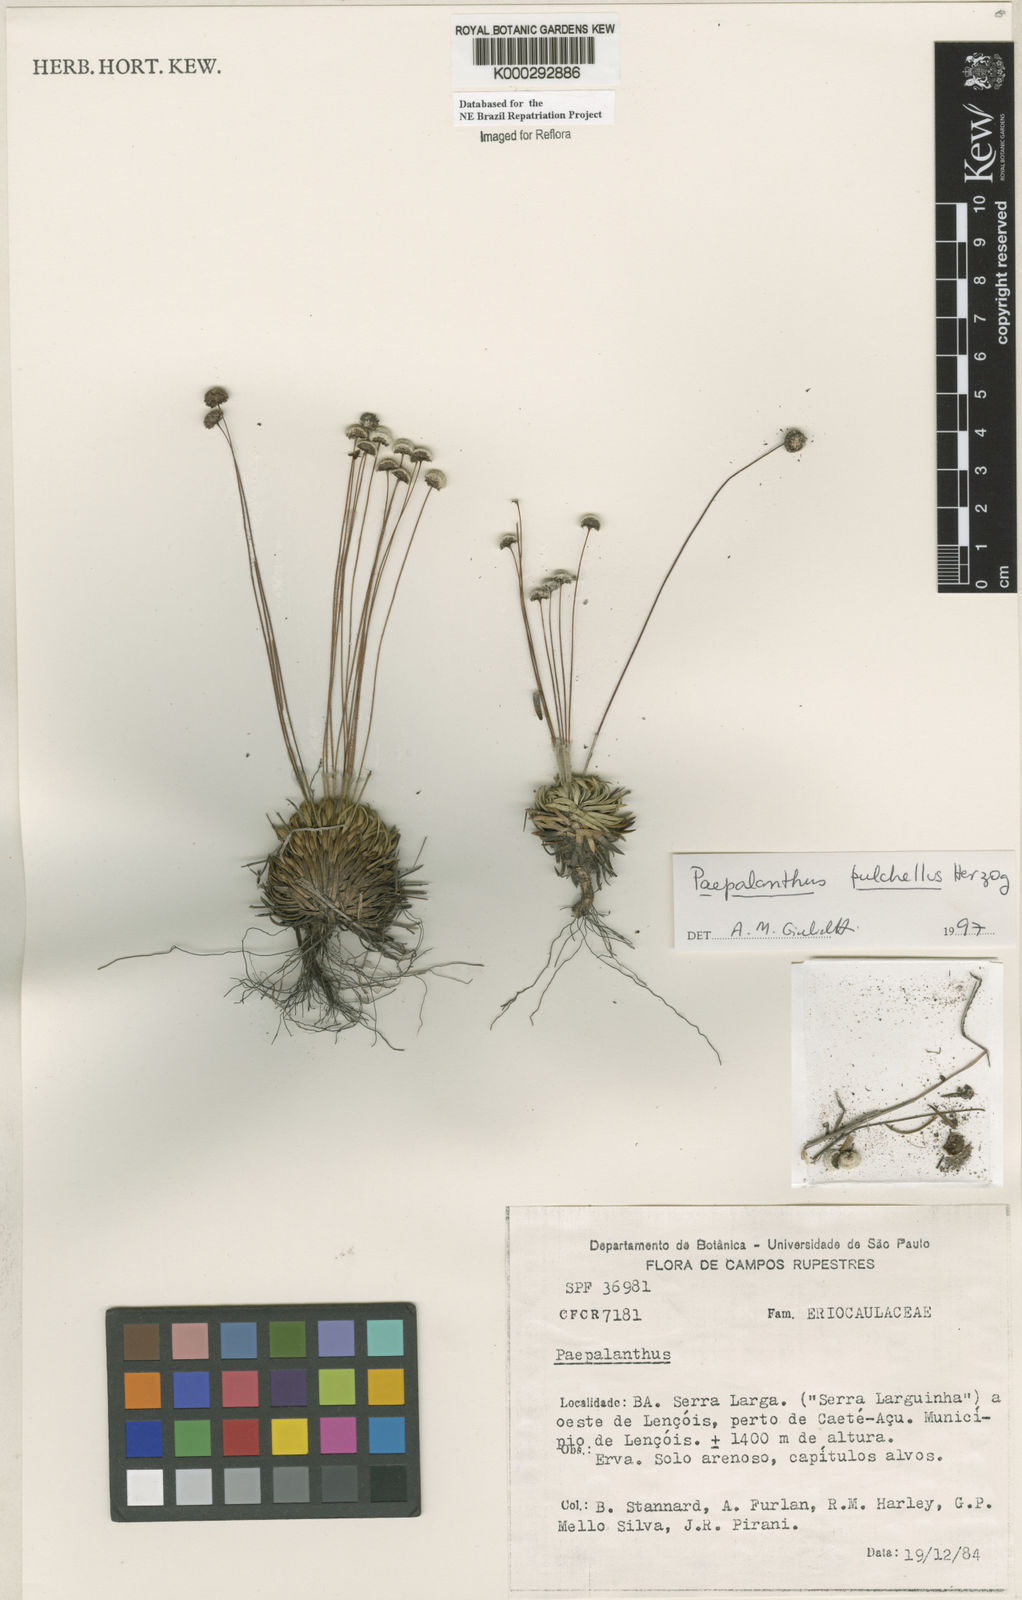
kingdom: Plantae
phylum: Tracheophyta
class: Liliopsida
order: Poales
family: Eriocaulaceae
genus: Paepalanthus
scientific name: Paepalanthus pulchellus
